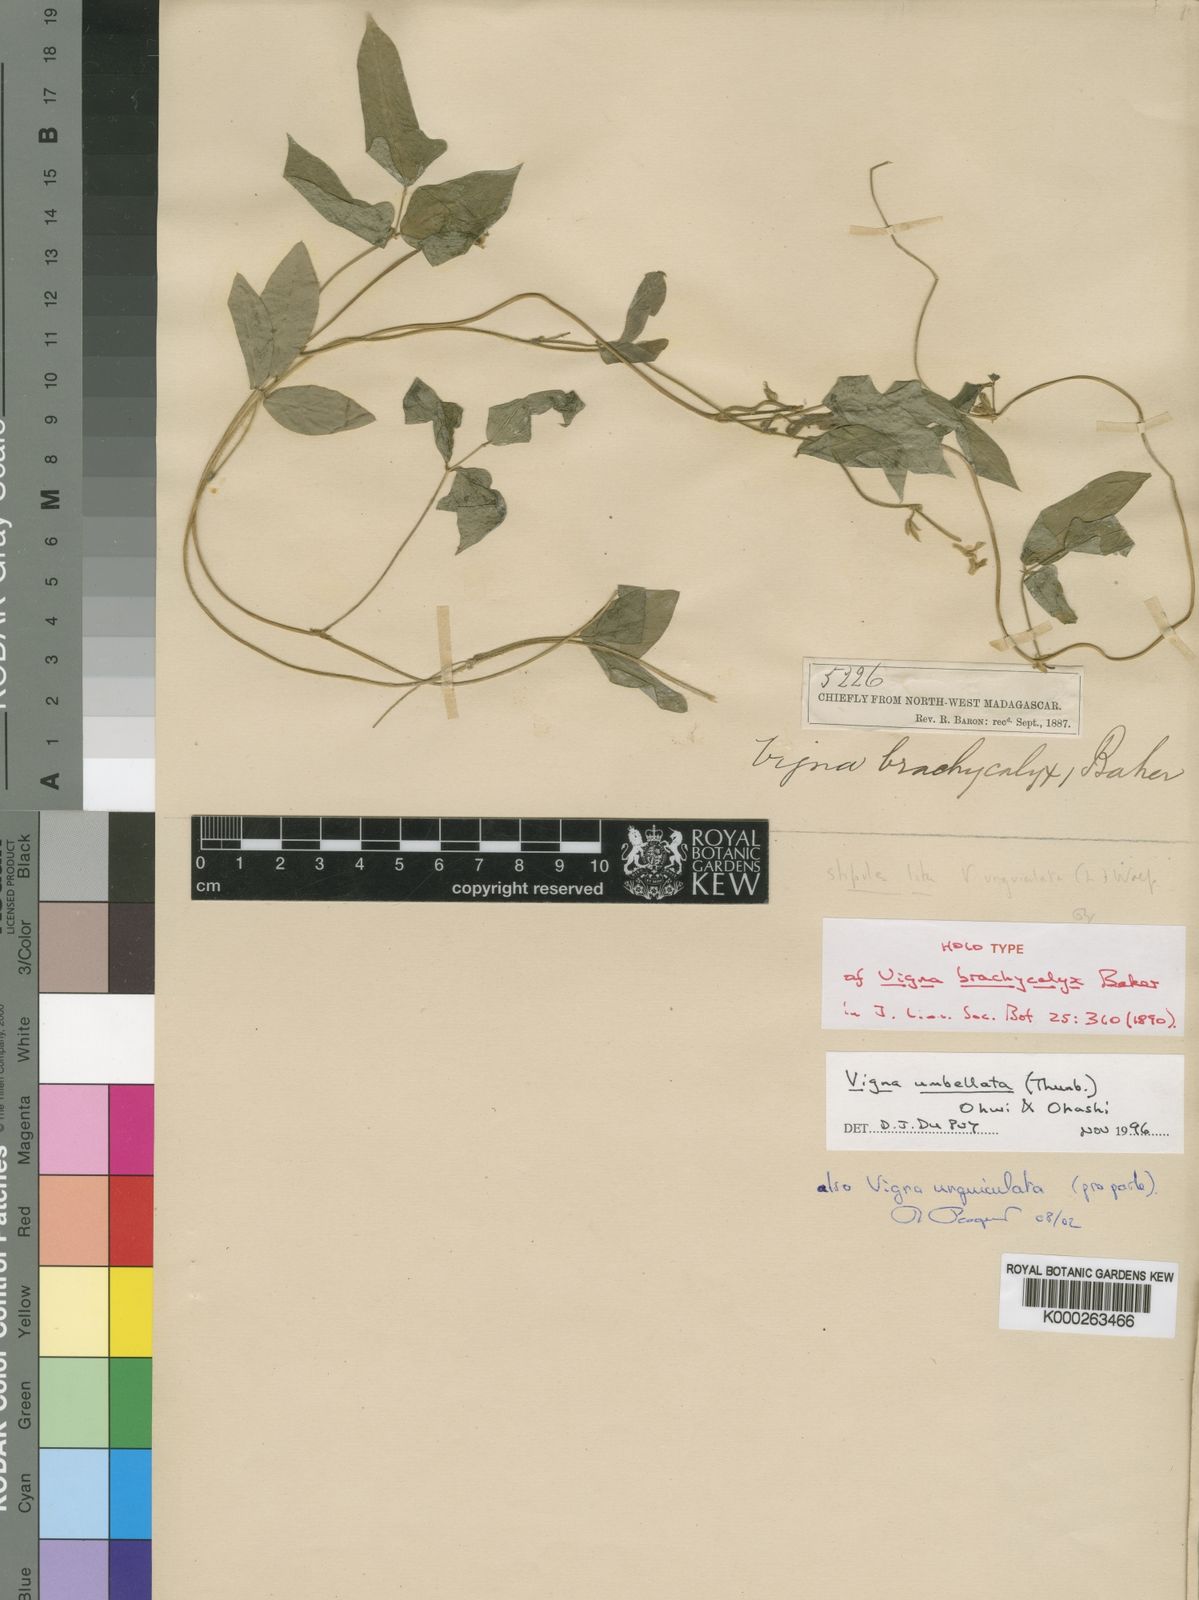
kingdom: Plantae
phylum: Tracheophyta
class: Magnoliopsida
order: Fabales
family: Fabaceae
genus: Vigna
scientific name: Vigna umbellata
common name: Oriental-bean
